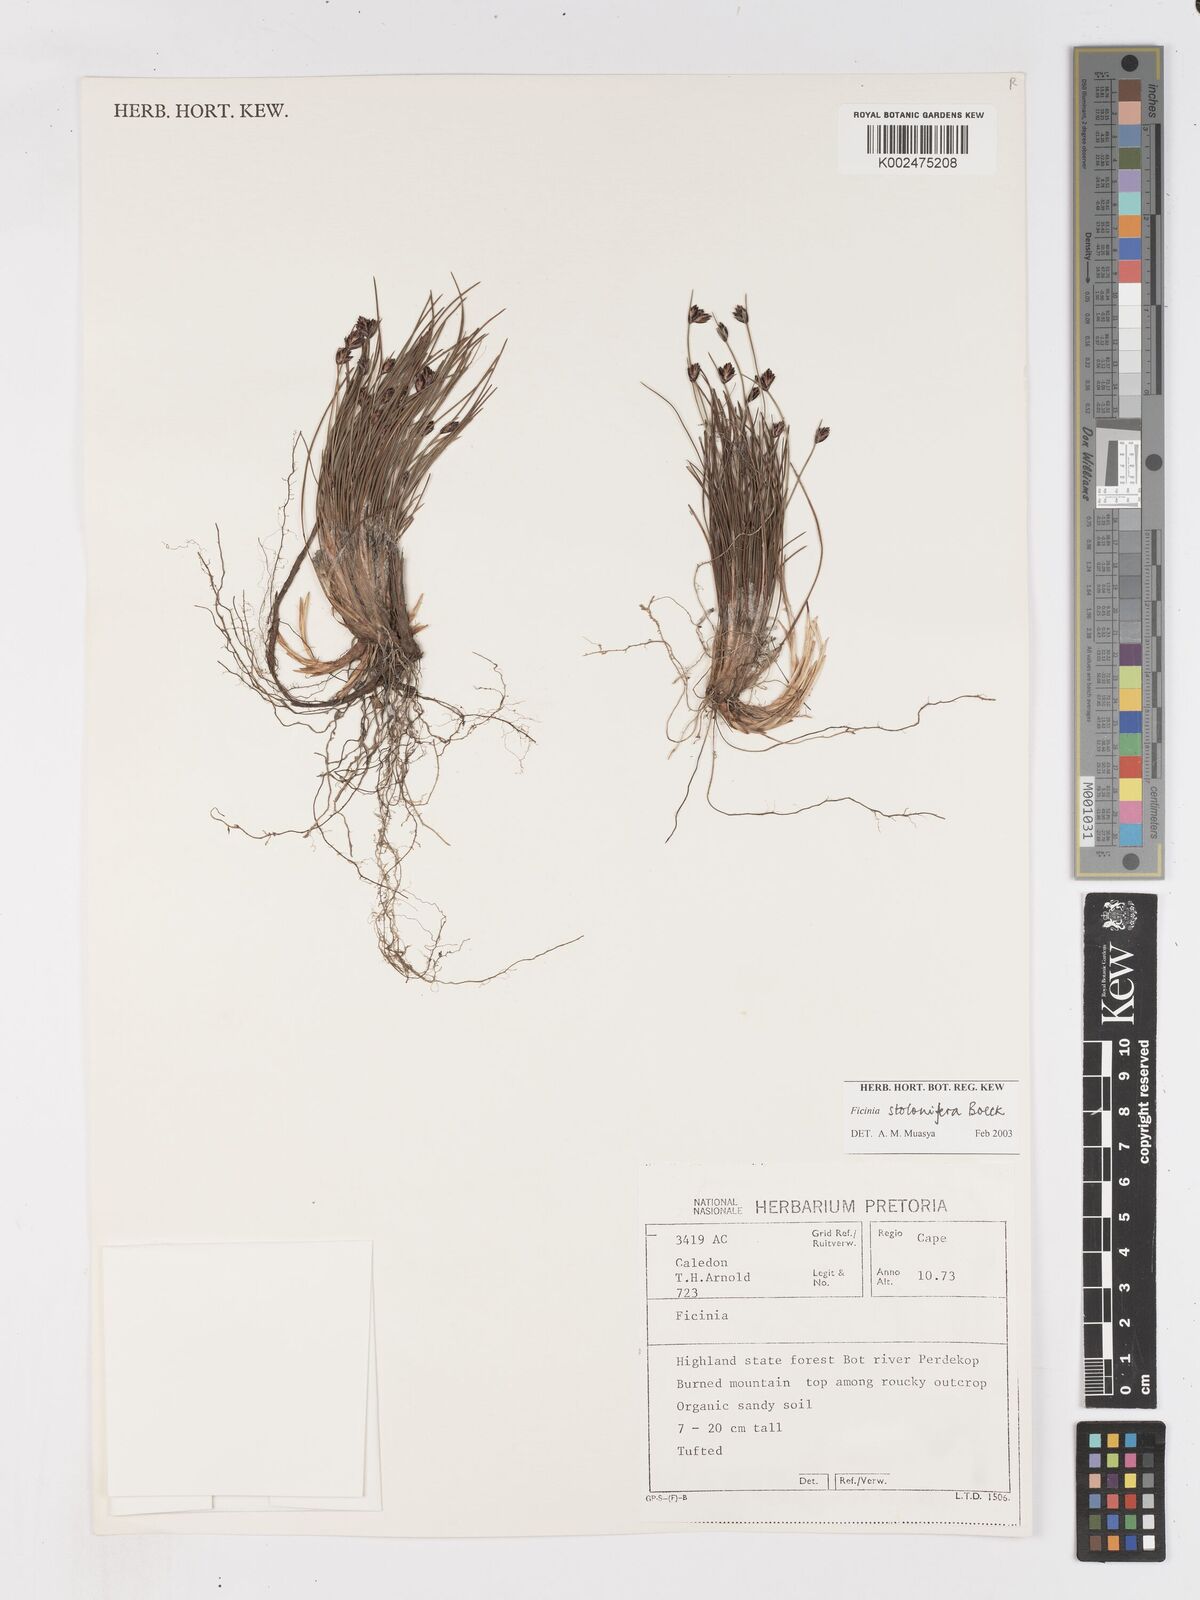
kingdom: Plantae
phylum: Tracheophyta
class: Liliopsida
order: Poales
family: Cyperaceae
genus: Ficinia
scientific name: Ficinia stolonifera
